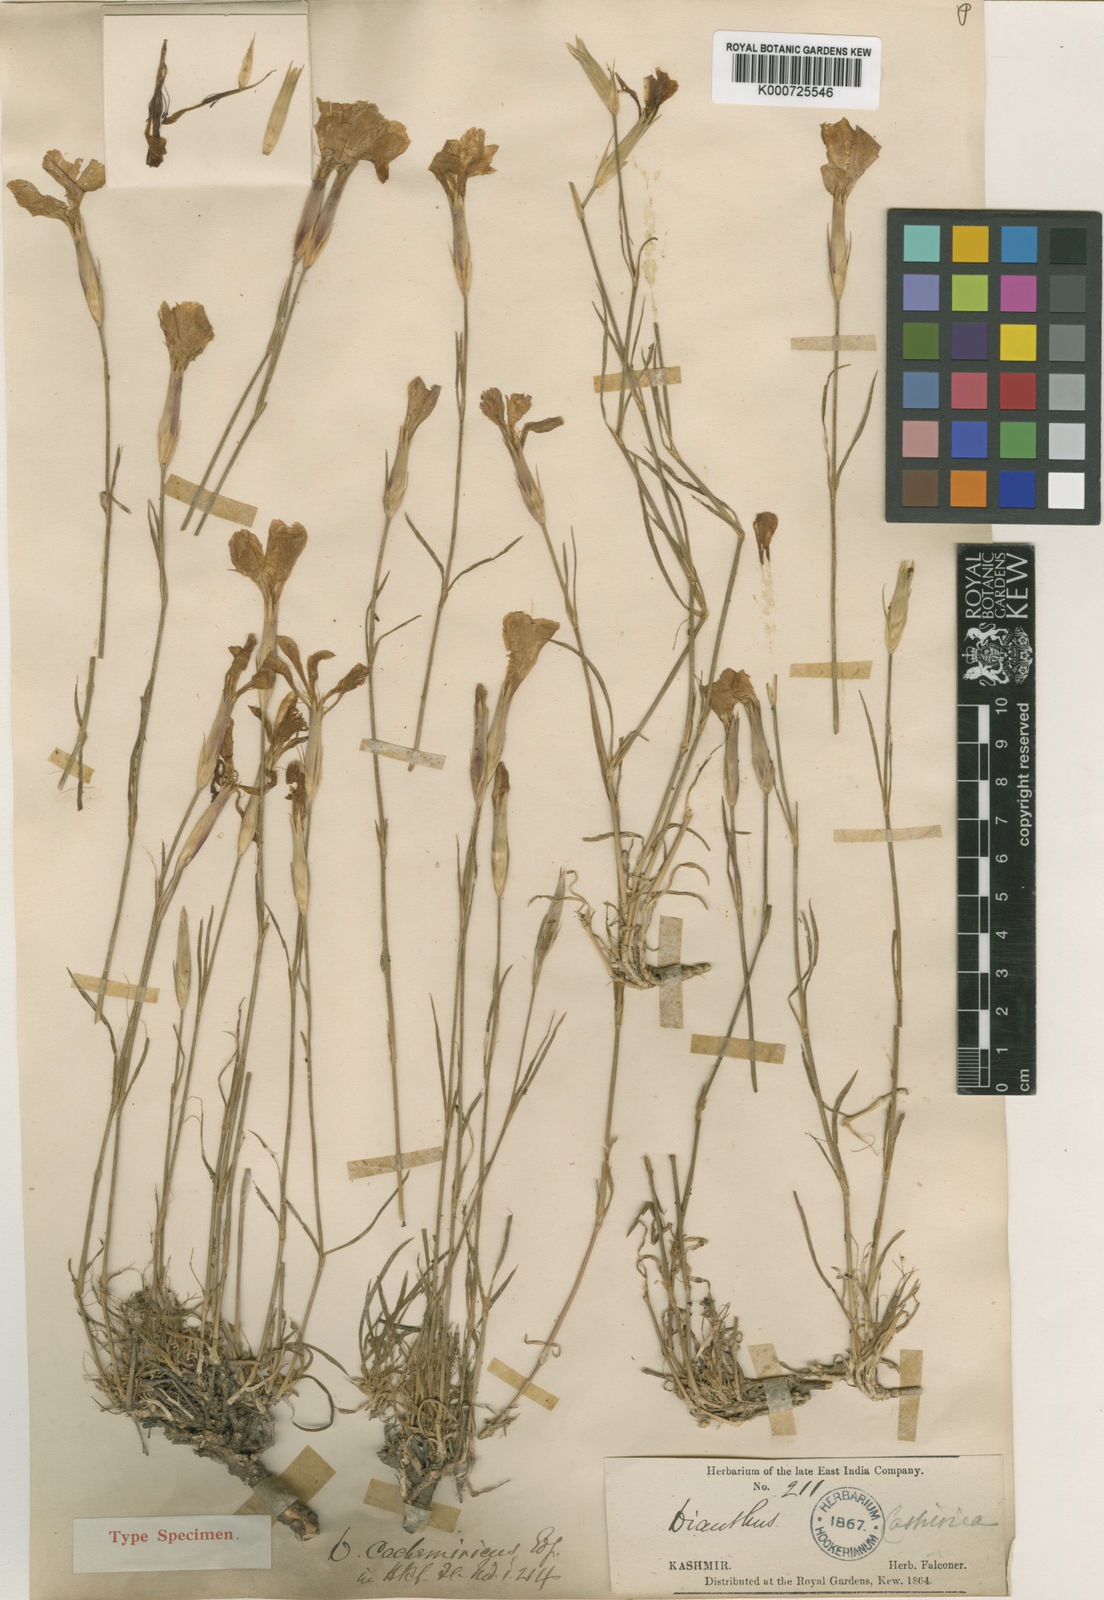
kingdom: Plantae
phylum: Tracheophyta
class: Magnoliopsida
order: Caryophyllales
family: Caryophyllaceae
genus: Dianthus
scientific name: Dianthus
